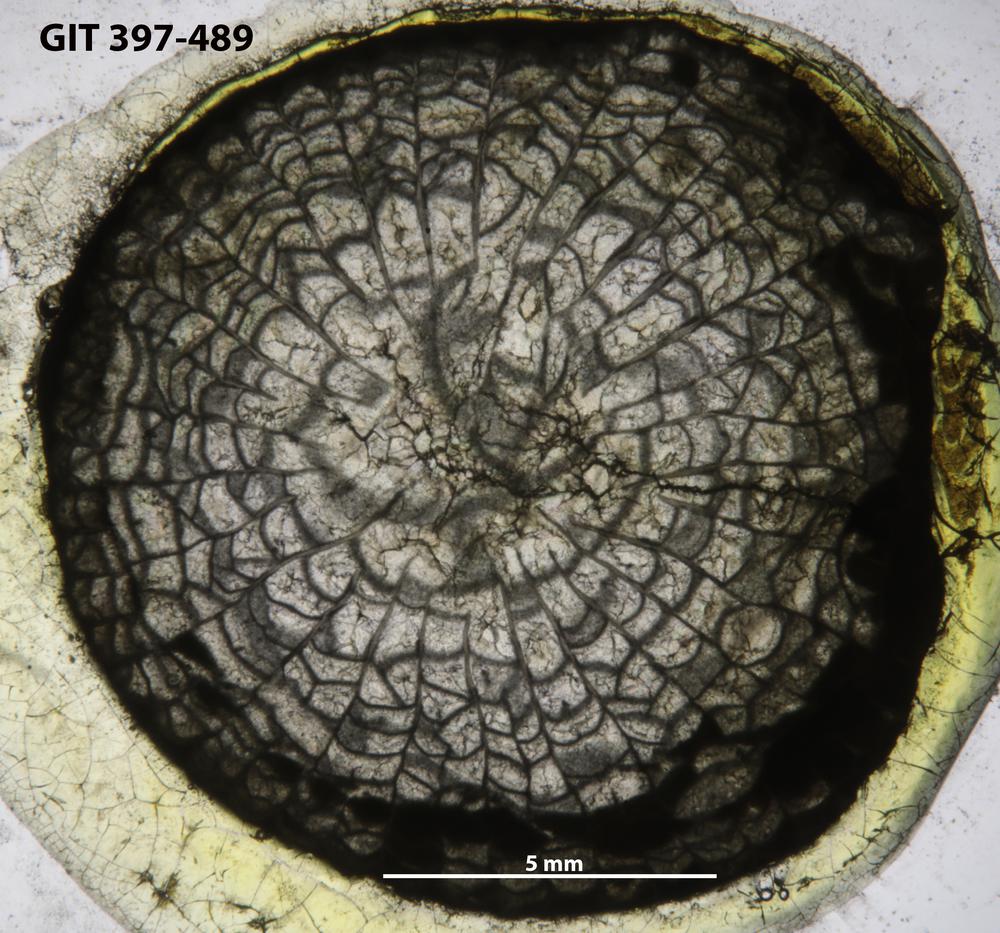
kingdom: Animalia
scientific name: Animalia
